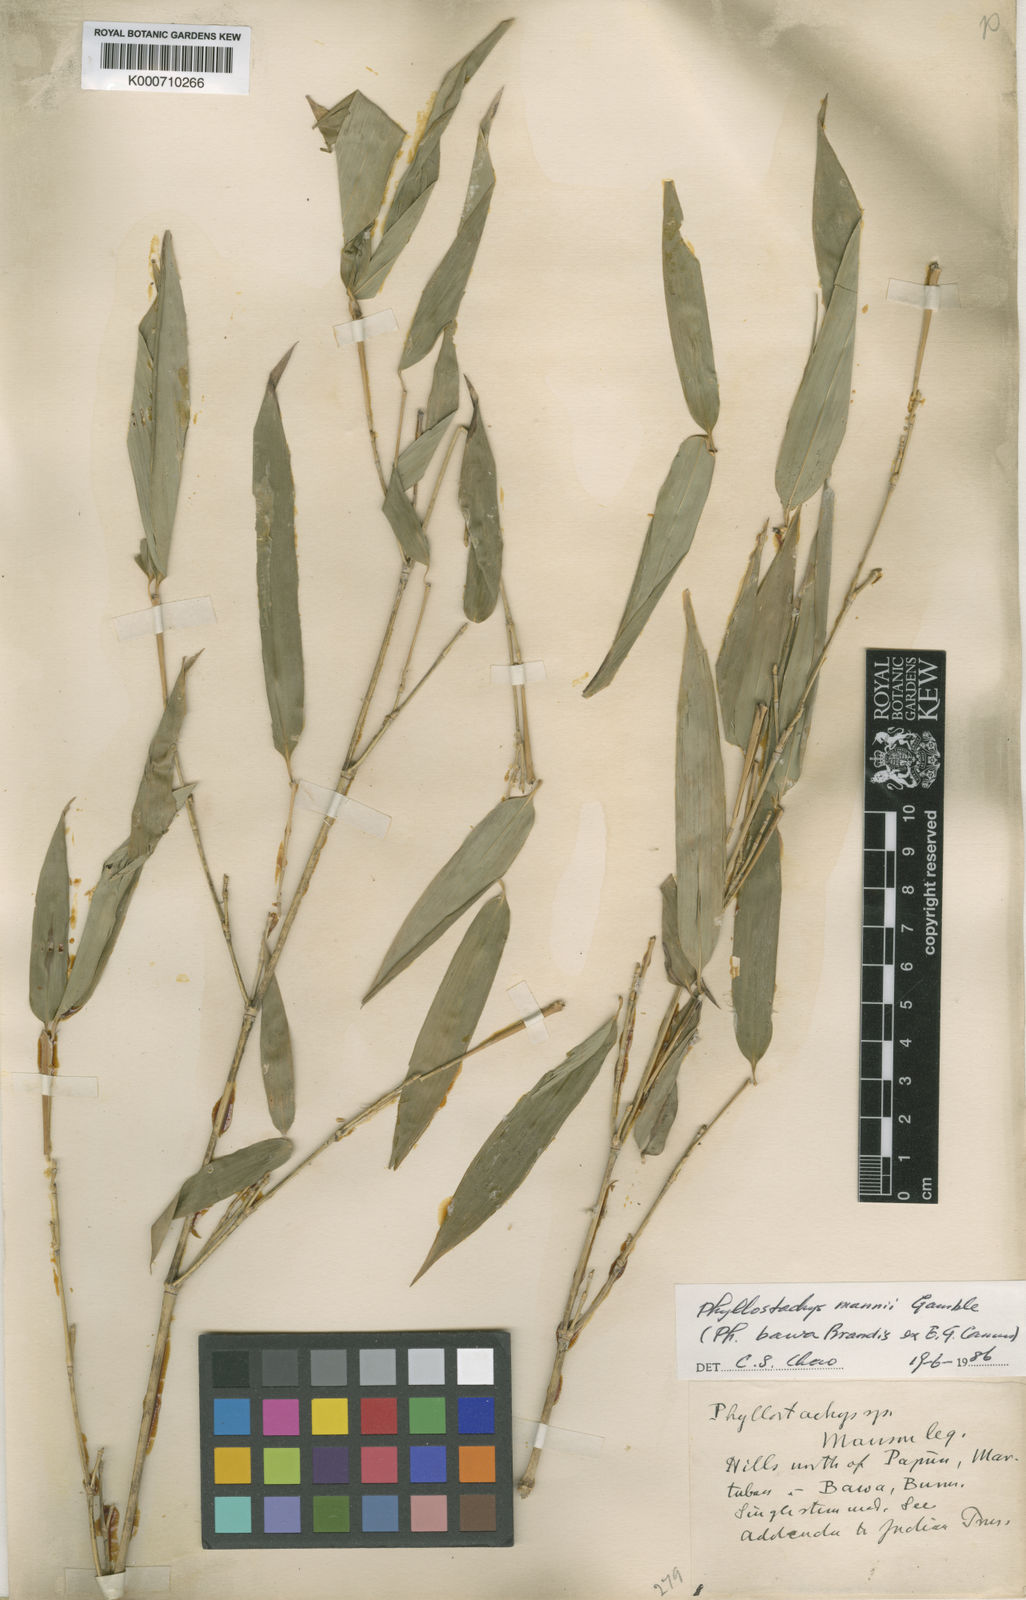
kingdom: Plantae
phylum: Tracheophyta
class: Liliopsida
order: Poales
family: Poaceae
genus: Phyllostachys
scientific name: Phyllostachys mannii
